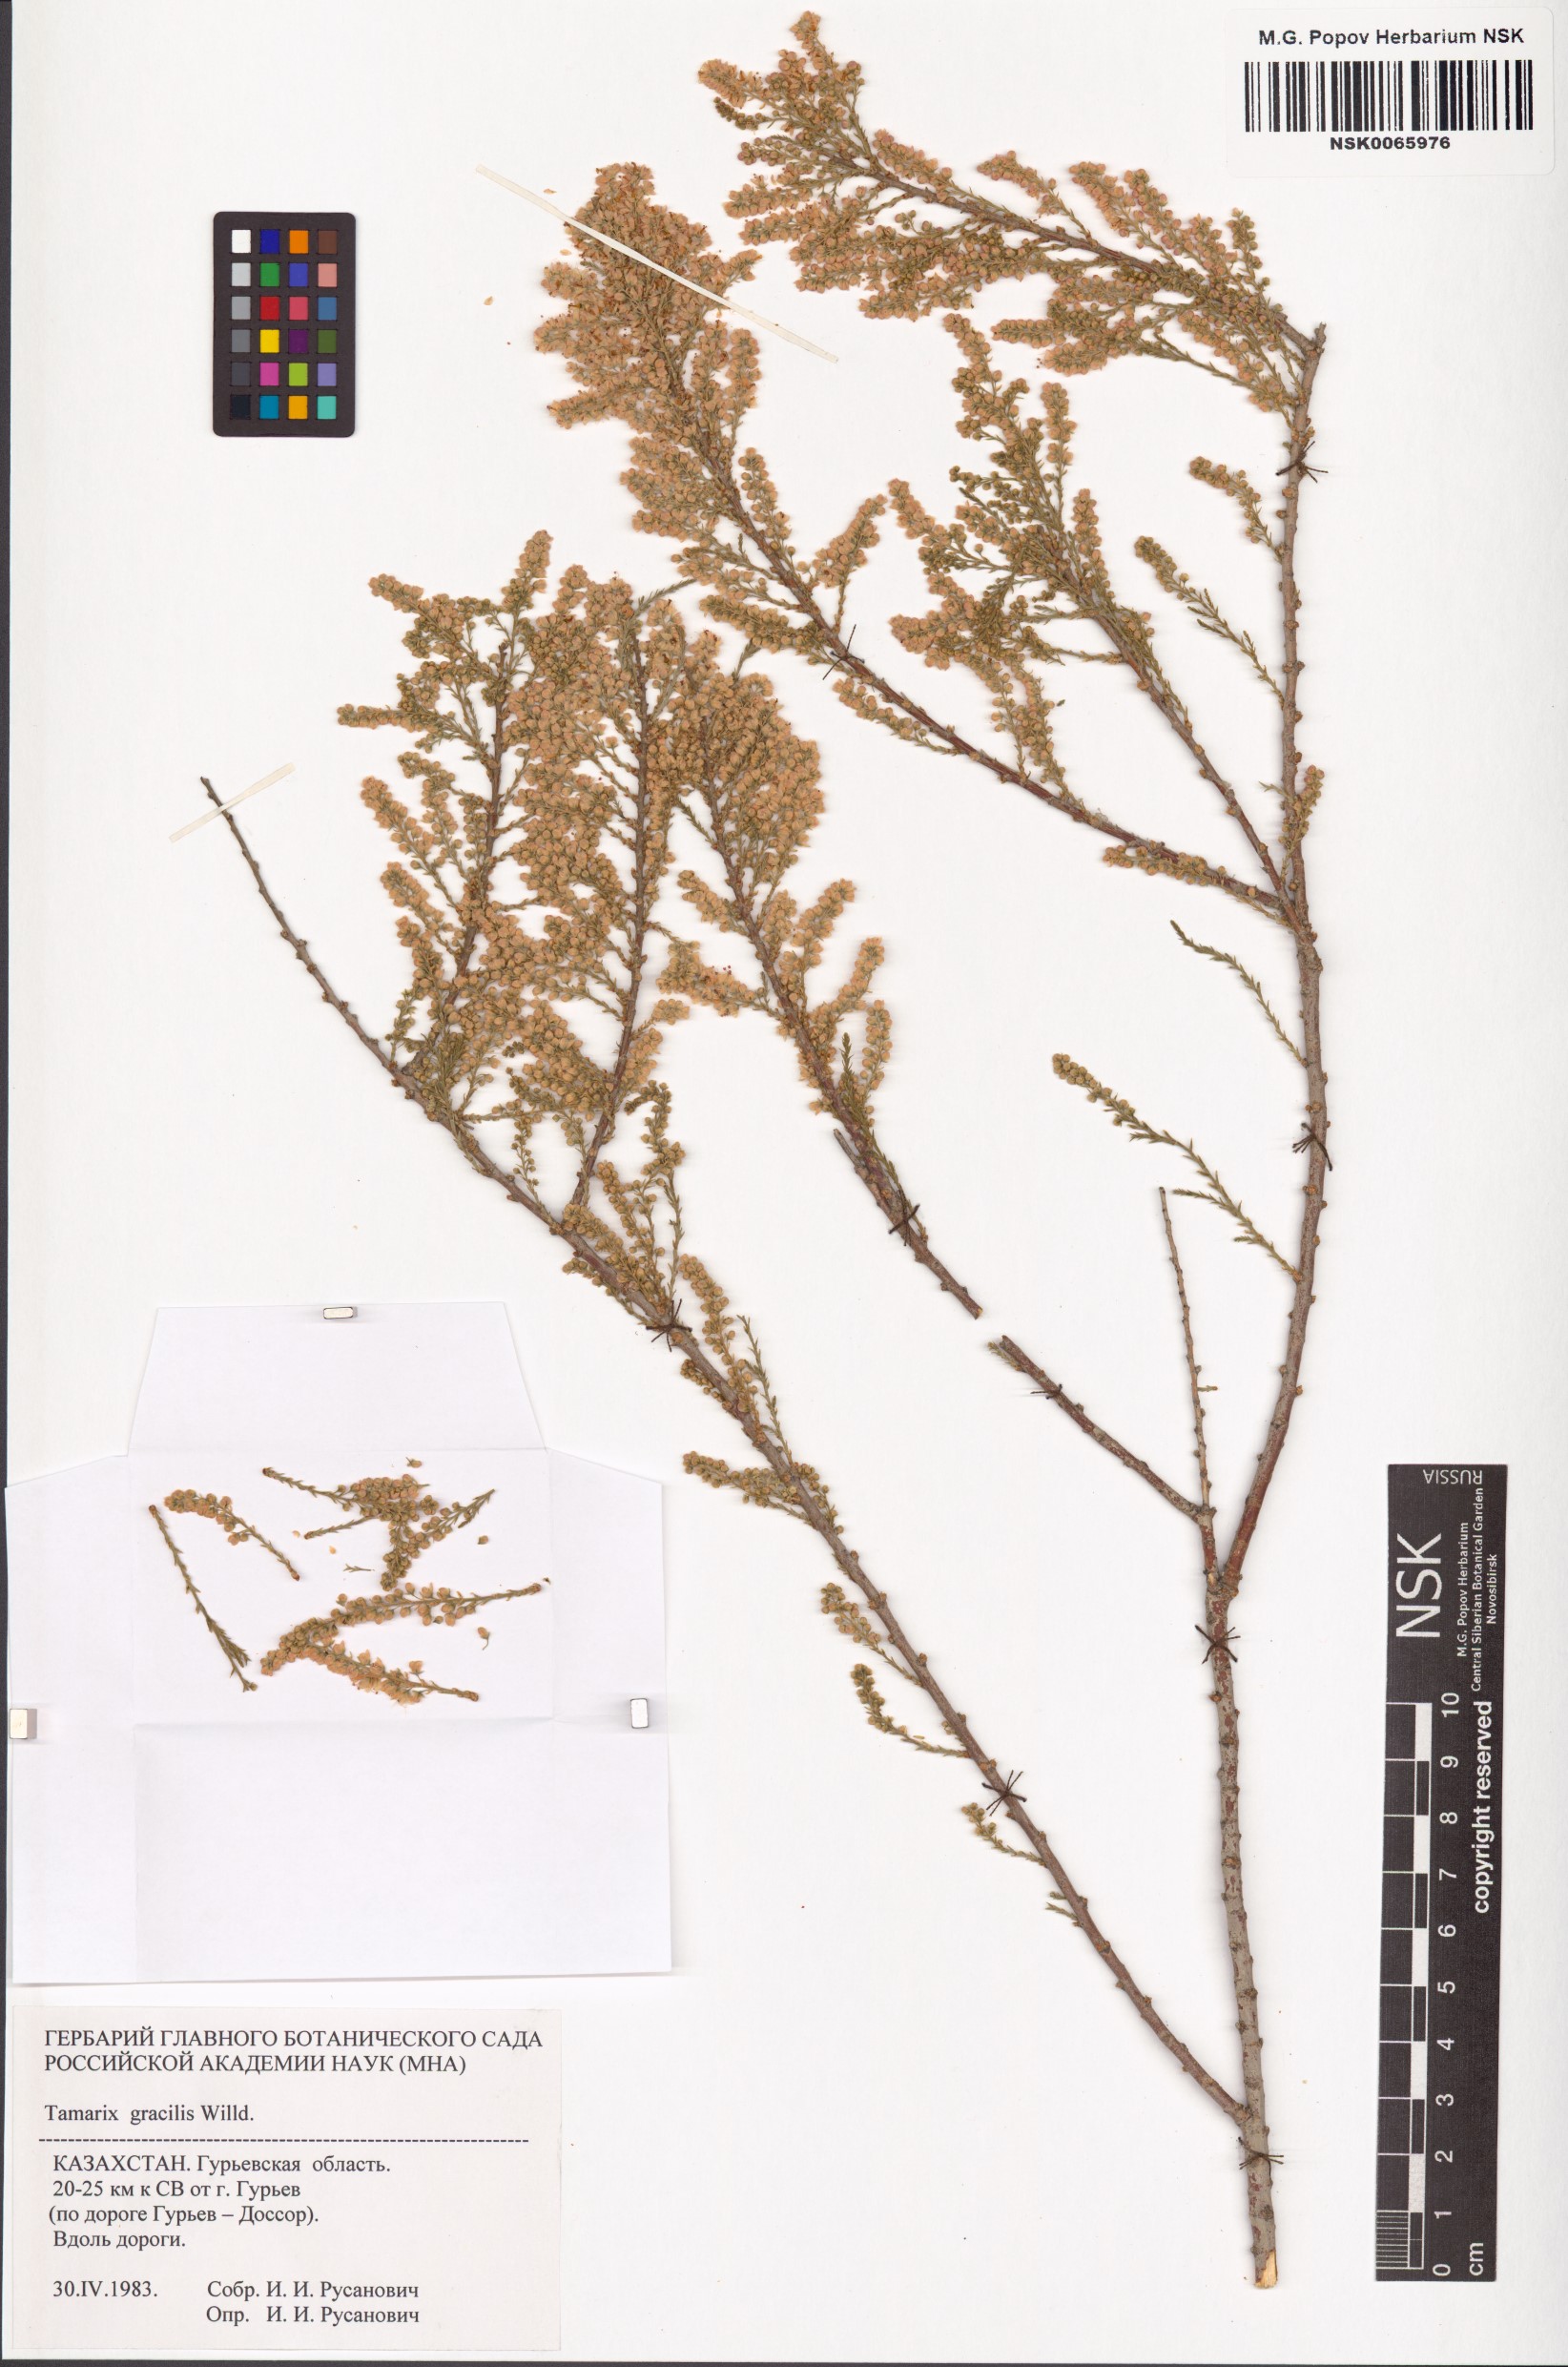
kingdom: Plantae
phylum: Tracheophyta
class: Magnoliopsida
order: Caryophyllales
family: Tamaricaceae
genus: Tamarix
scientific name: Tamarix gracilis
